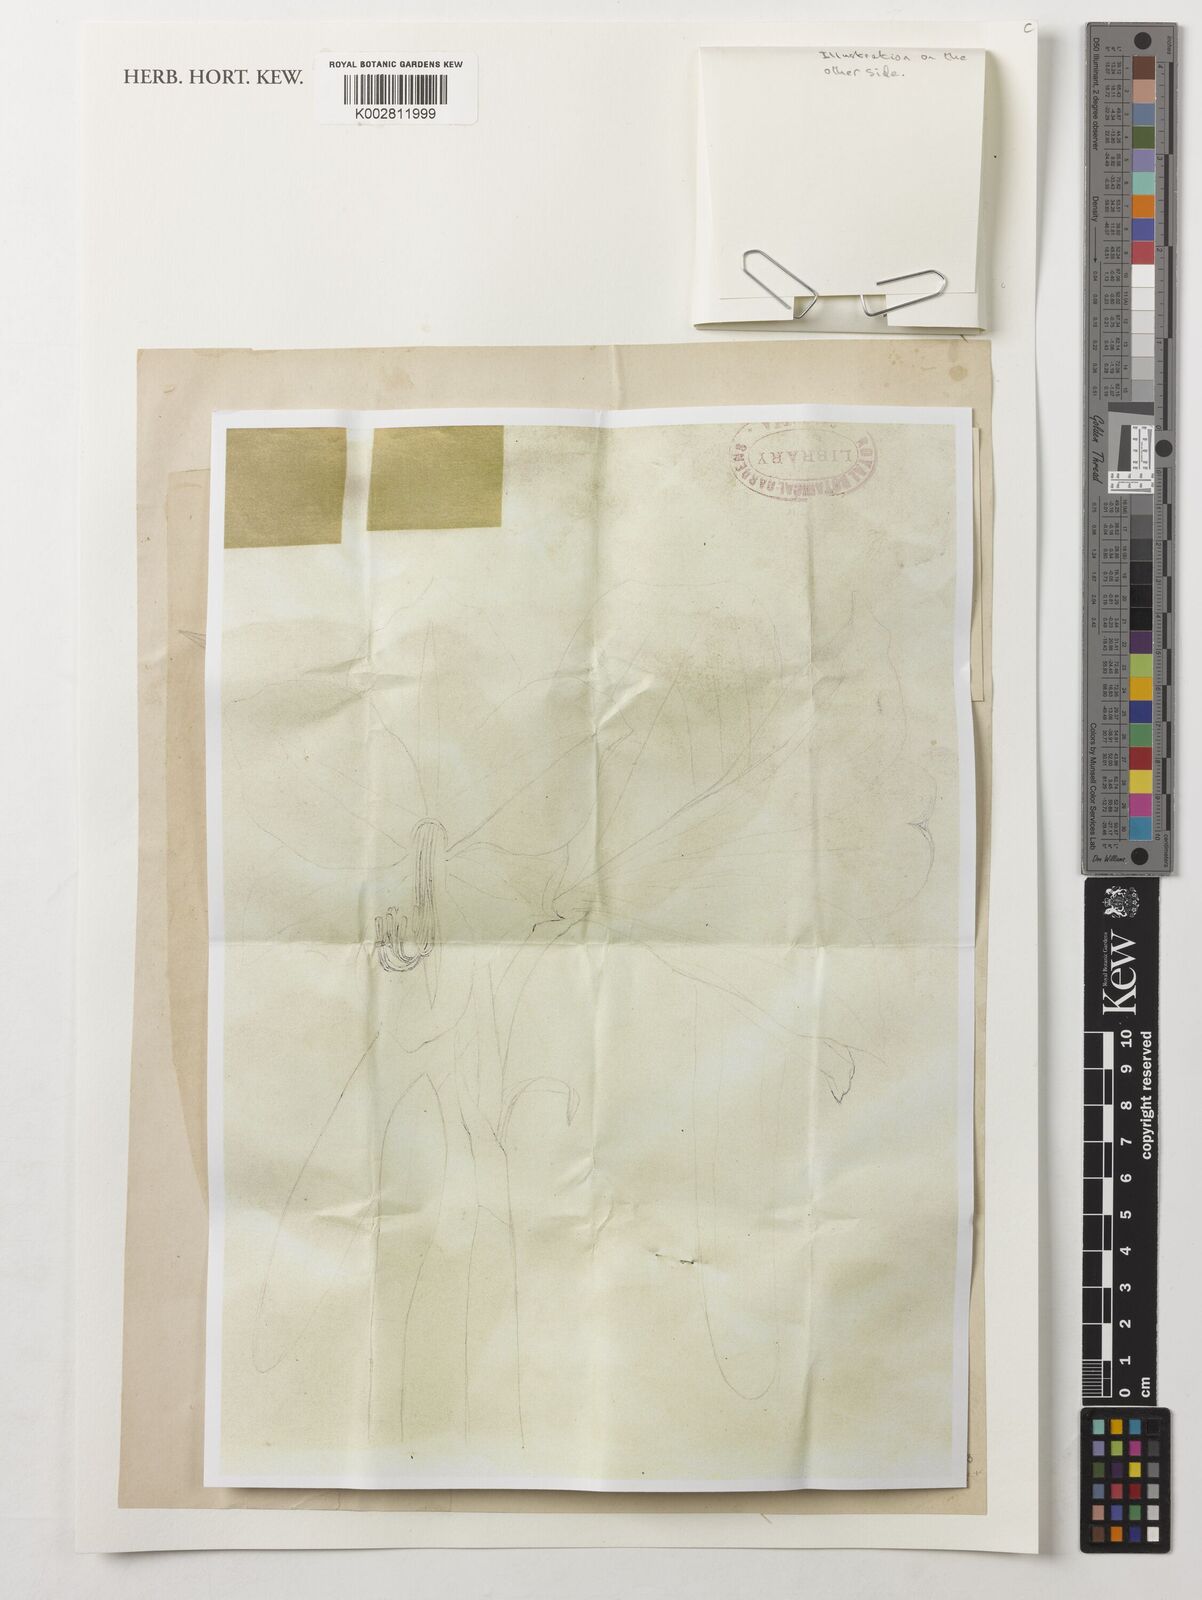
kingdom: Plantae
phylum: Tracheophyta
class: Liliopsida
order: Poales
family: Poaceae
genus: Pleioblastus
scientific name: Pleioblastus variegatus
